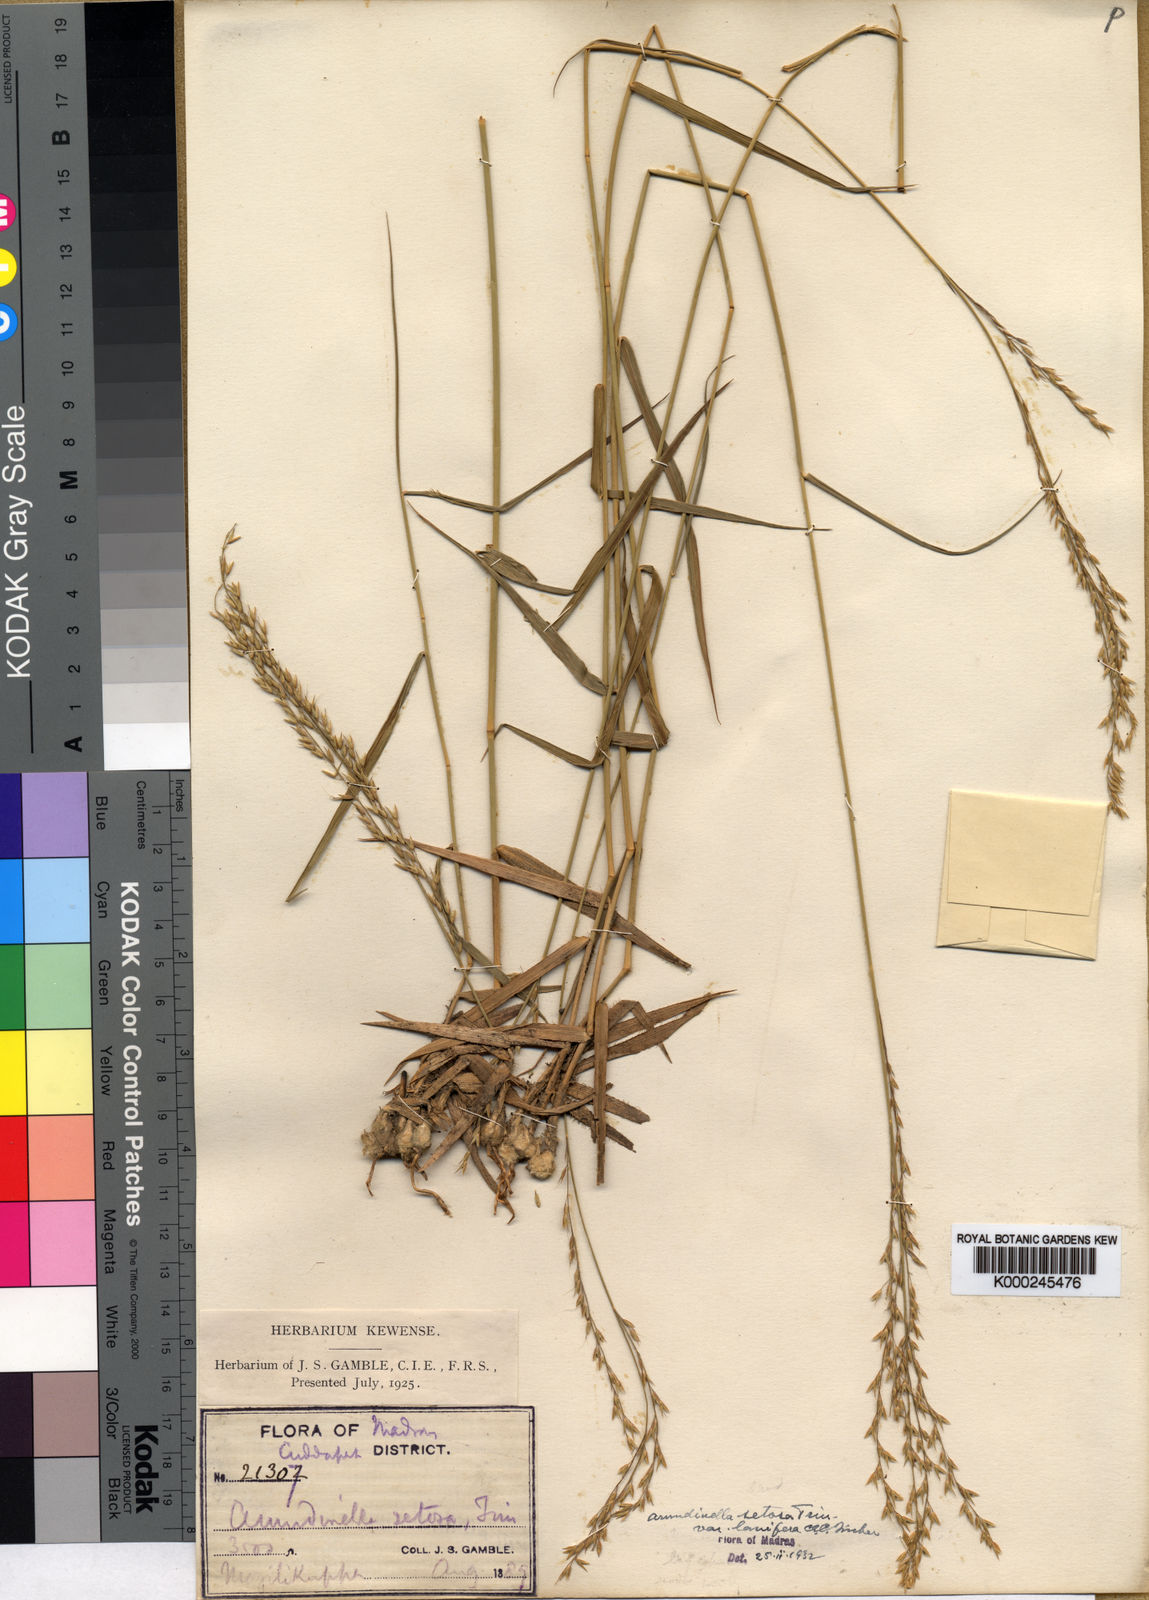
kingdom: Plantae
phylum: Tracheophyta
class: Liliopsida
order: Poales
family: Poaceae
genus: Arundinella
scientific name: Arundinella setosa
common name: Reed grass
